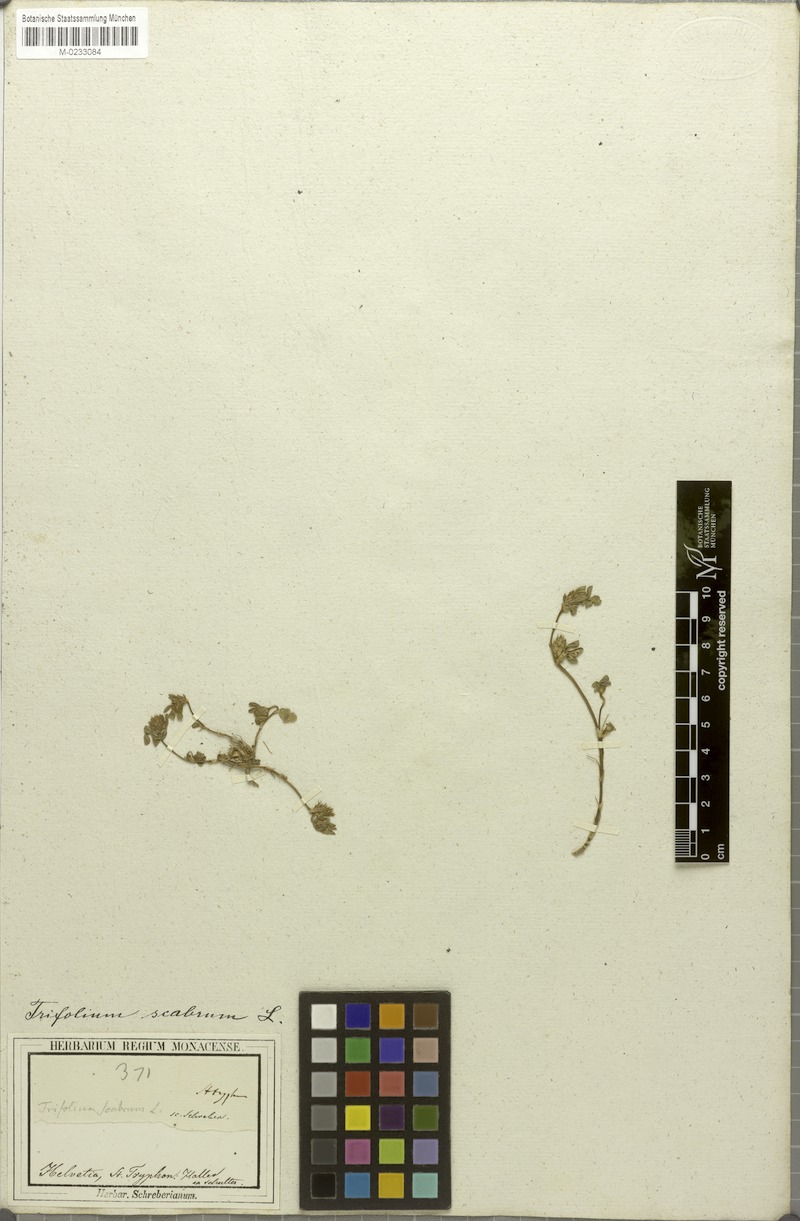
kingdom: Plantae
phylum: Tracheophyta
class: Magnoliopsida
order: Fabales
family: Fabaceae
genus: Trifolium
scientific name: Trifolium scabrum
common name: Rough clover
